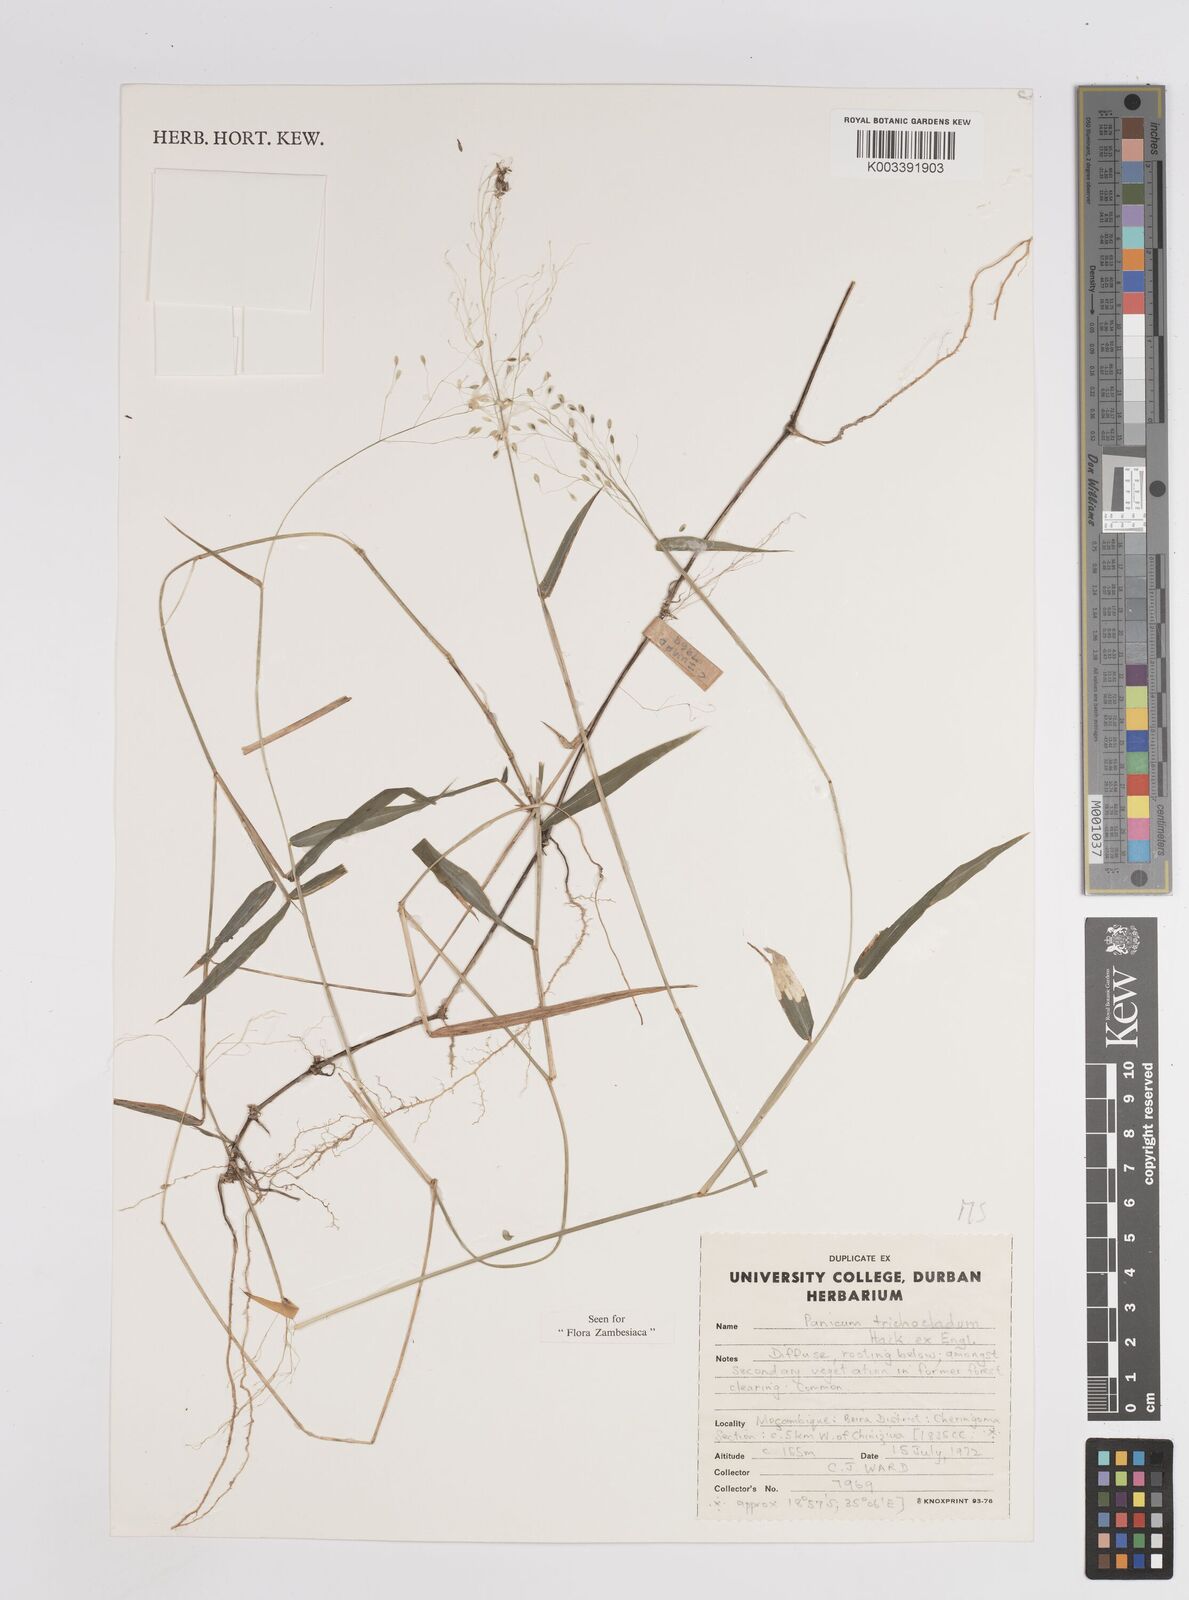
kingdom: Plantae
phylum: Tracheophyta
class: Liliopsida
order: Poales
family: Poaceae
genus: Panicum
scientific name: Panicum trichocladum
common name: Donkey grass
